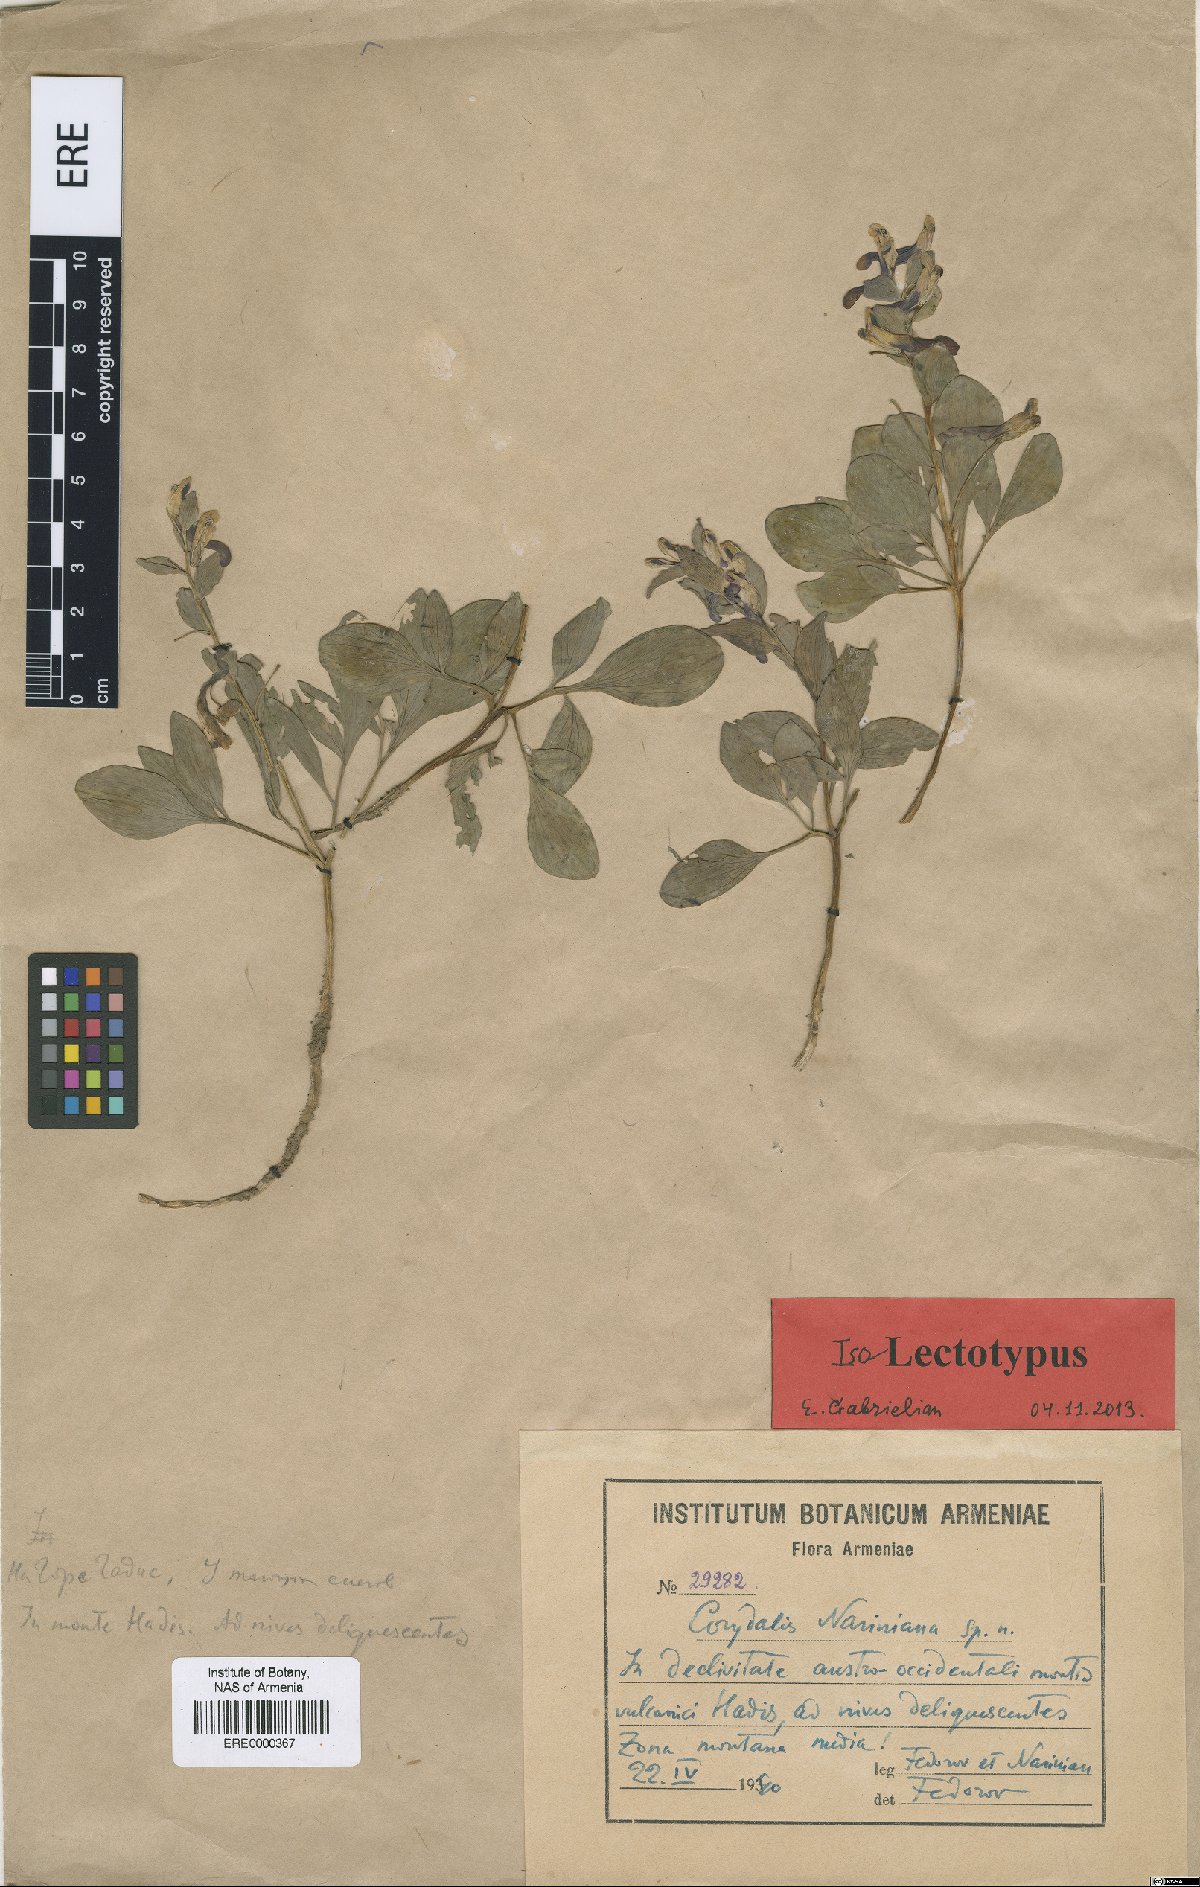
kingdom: Plantae
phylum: Tracheophyta
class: Magnoliopsida
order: Ranunculales
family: Papaveraceae
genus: Corydalis
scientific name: Corydalis nariniana
